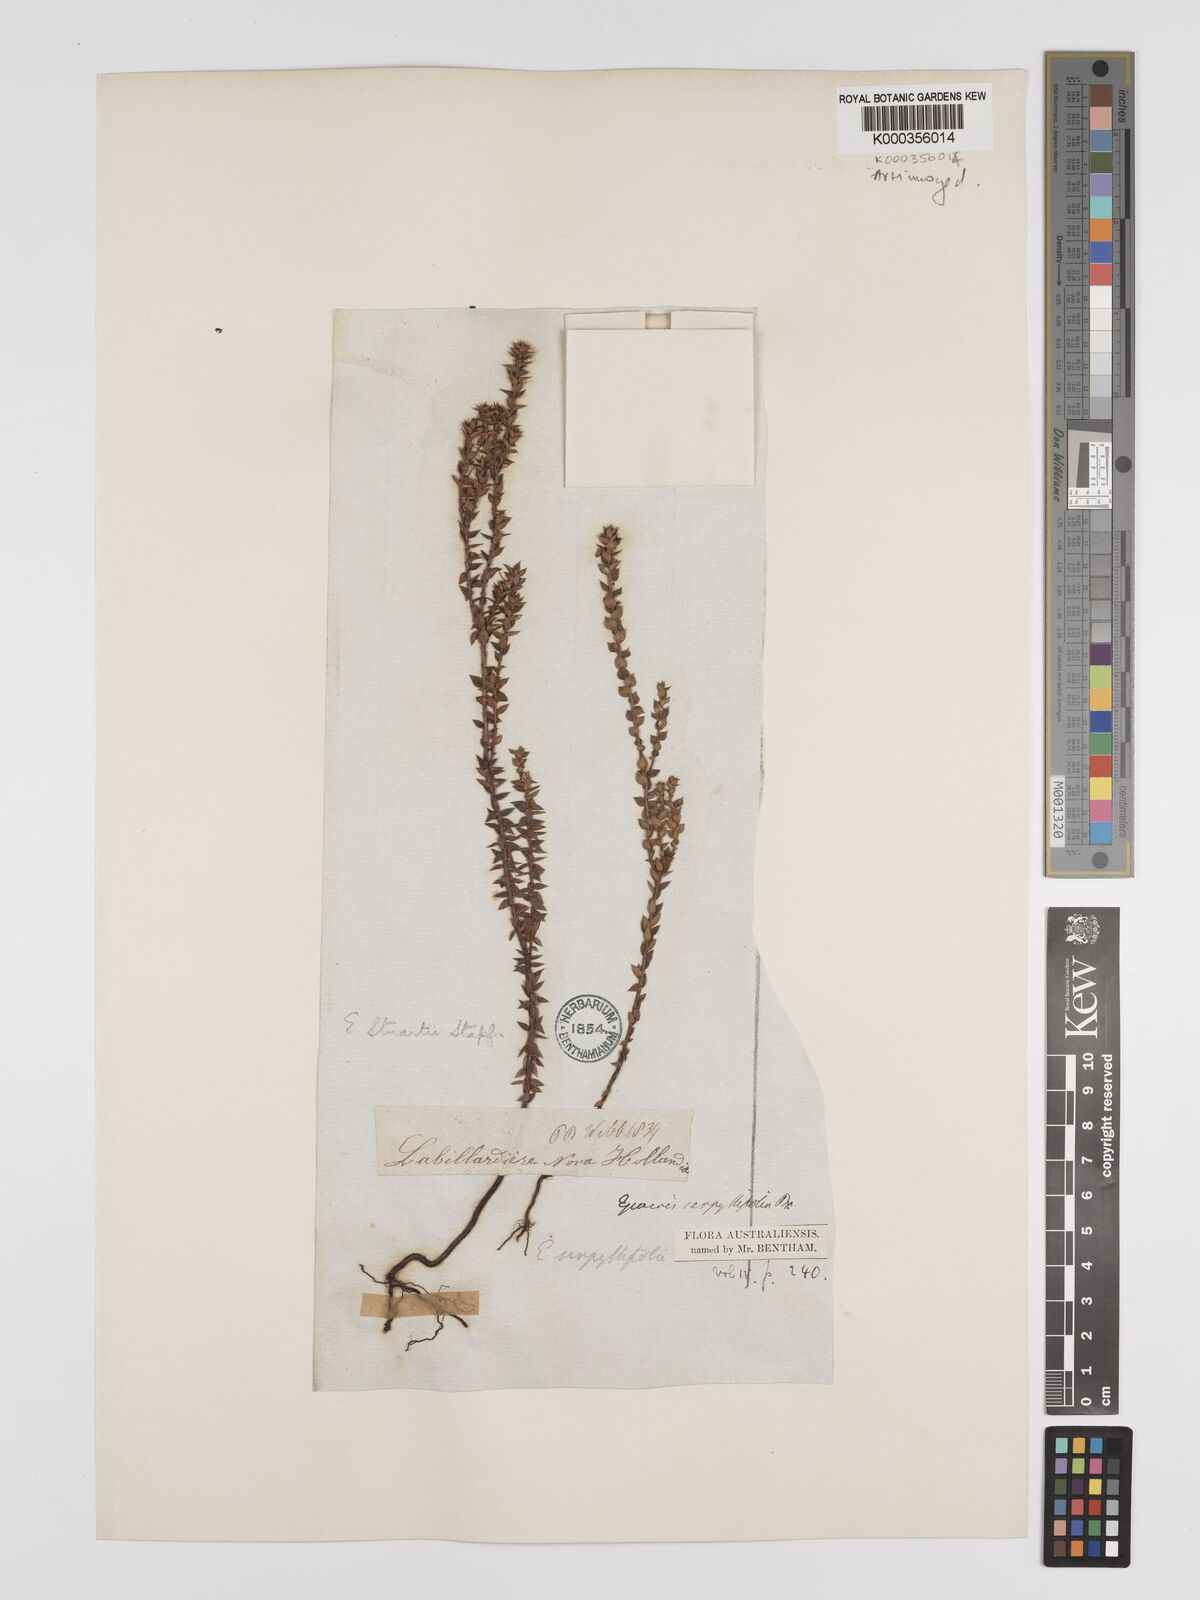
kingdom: Plantae
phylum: Tracheophyta
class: Magnoliopsida
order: Ericales
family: Ericaceae
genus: Epacris
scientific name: Epacris stuartii
